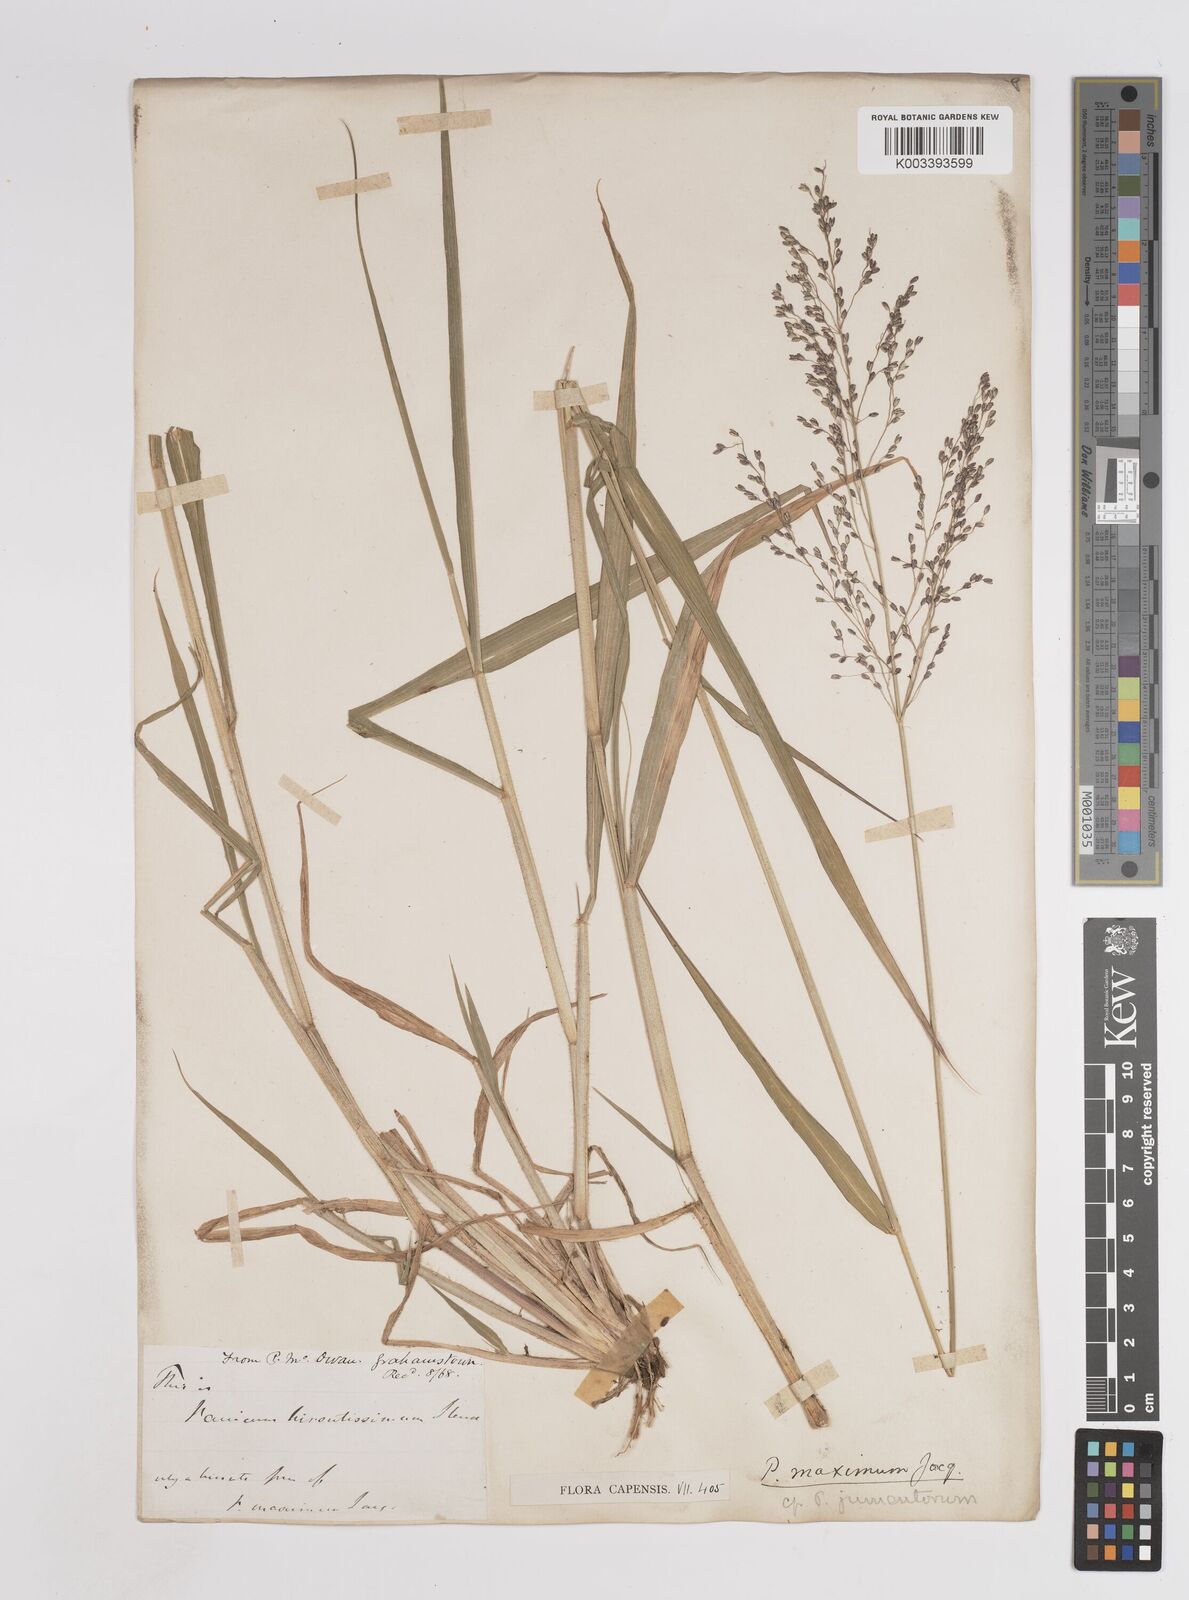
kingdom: Plantae
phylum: Tracheophyta
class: Liliopsida
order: Poales
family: Poaceae
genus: Megathyrsus
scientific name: Megathyrsus maximus
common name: Guineagrass
